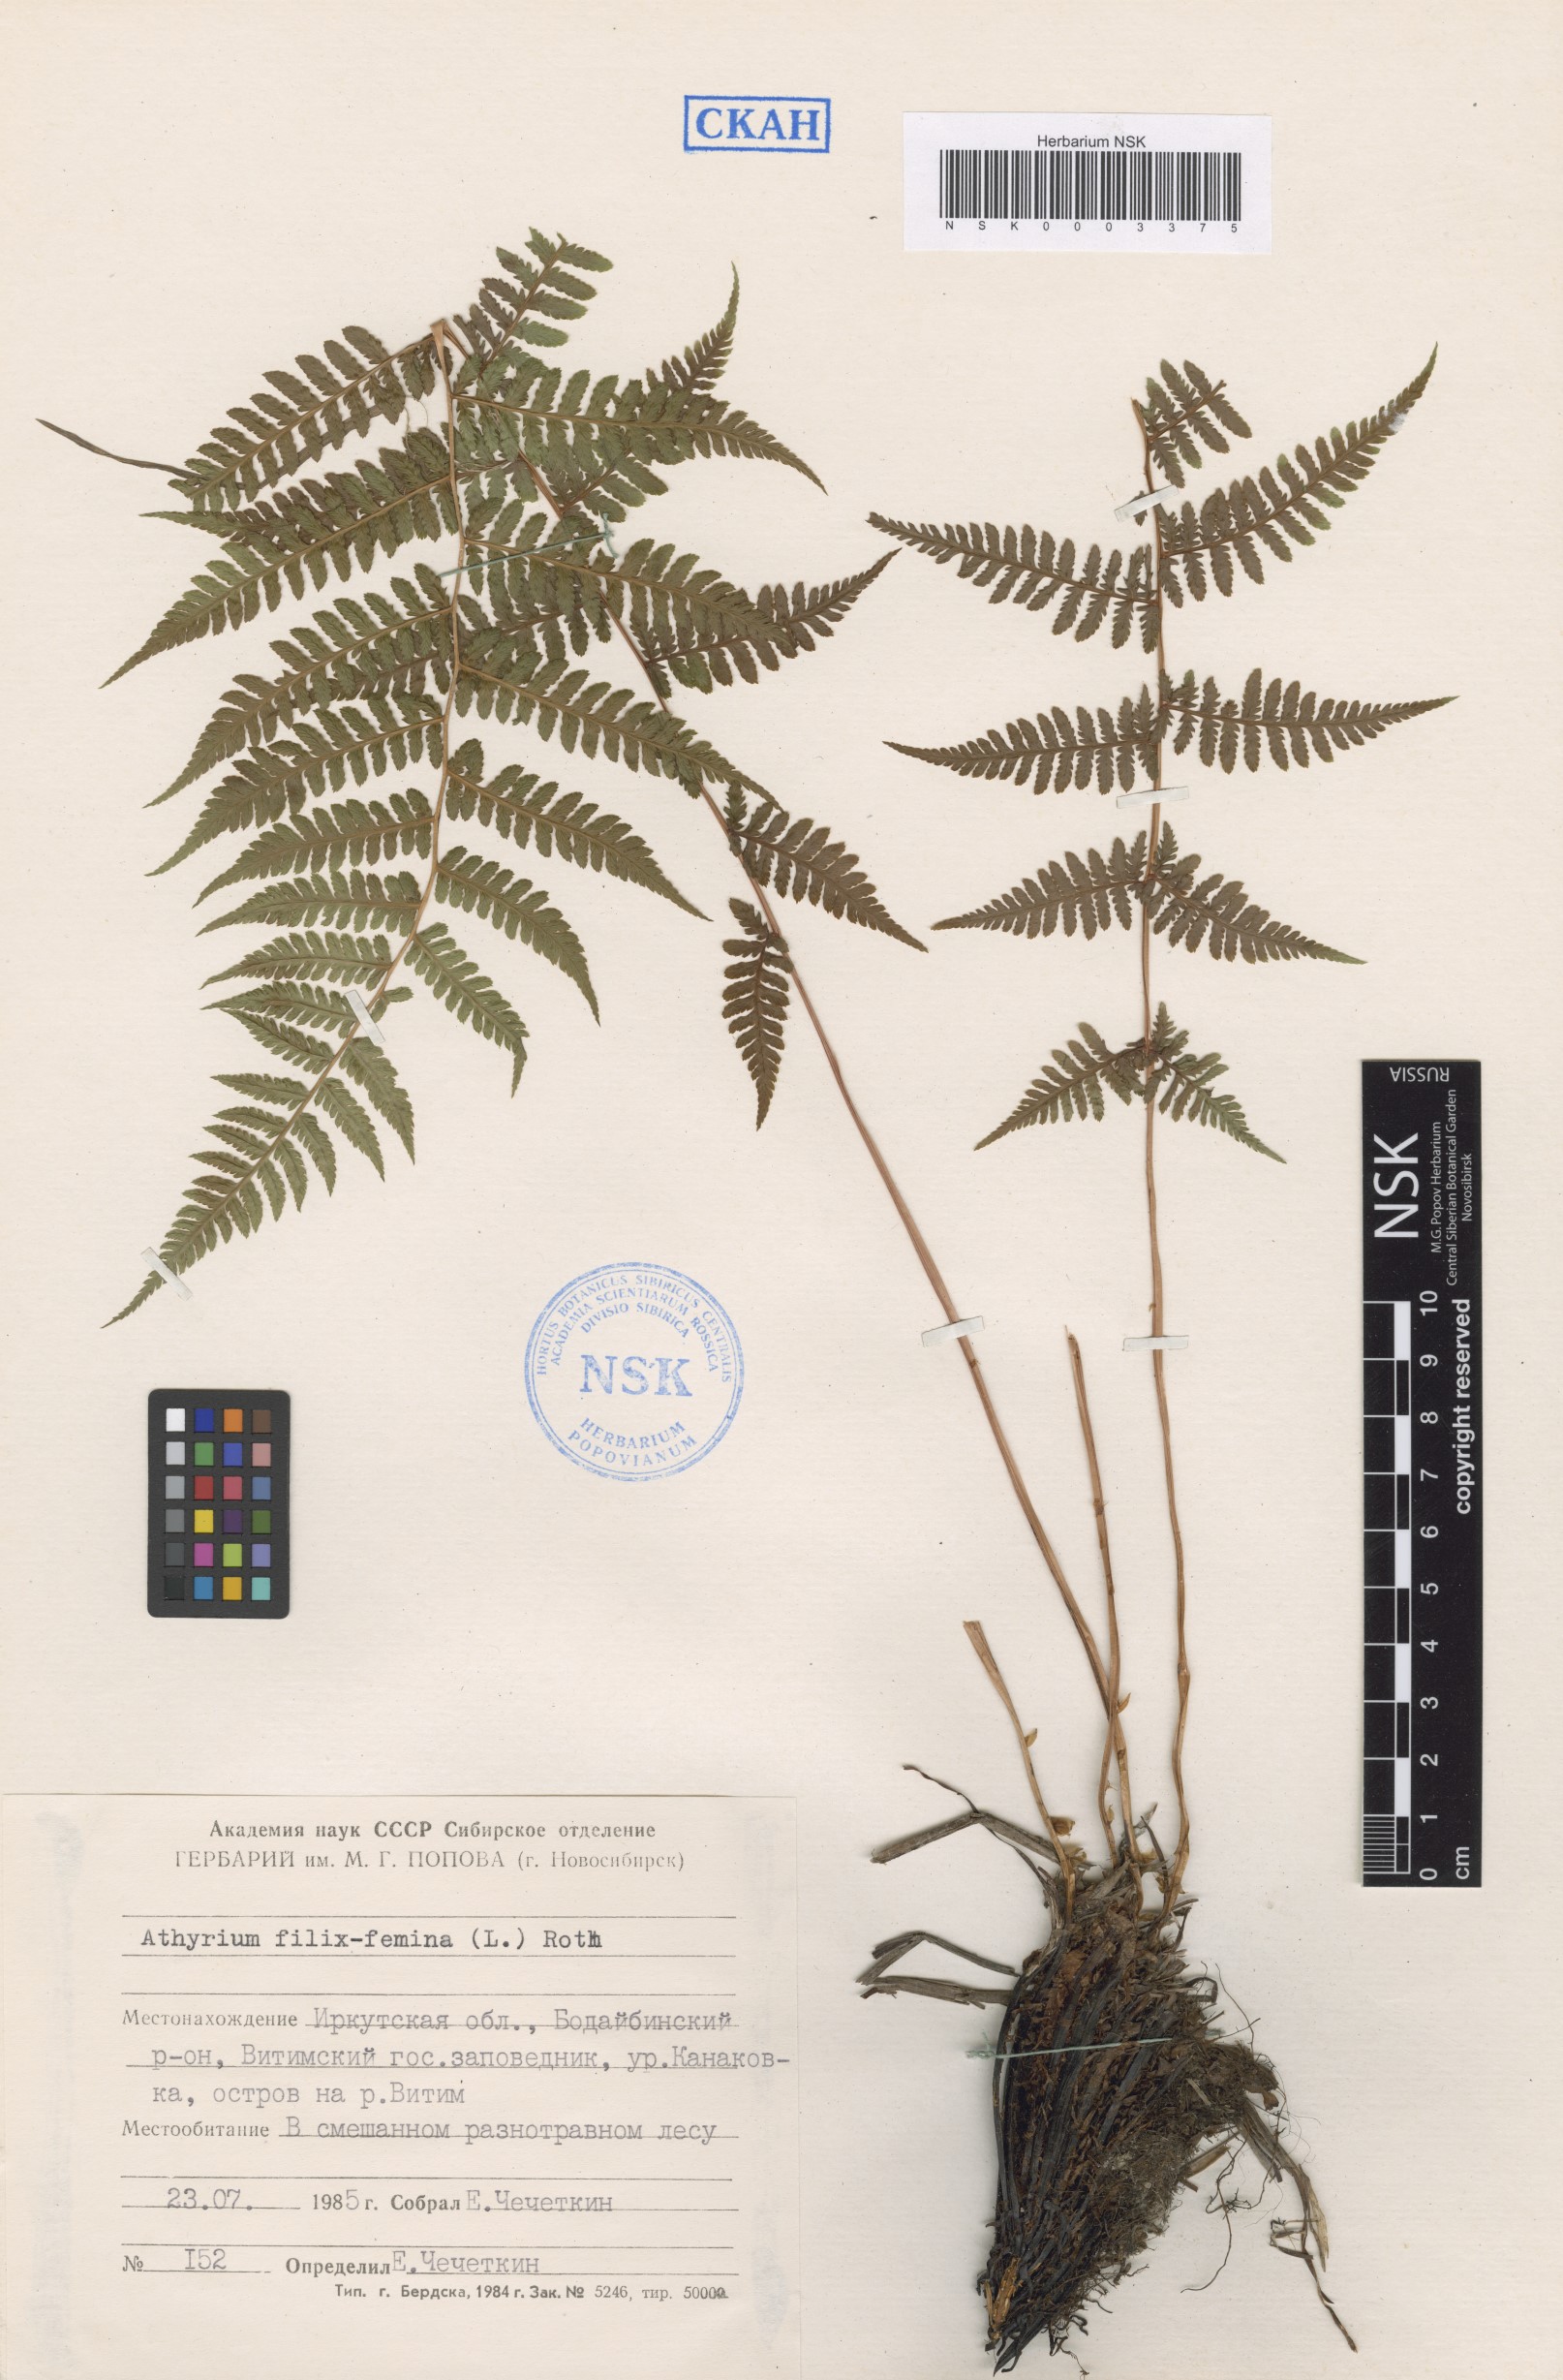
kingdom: Plantae
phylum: Tracheophyta
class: Polypodiopsida
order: Polypodiales
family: Athyriaceae
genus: Athyrium
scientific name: Athyrium filix-femina
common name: Lady fern
